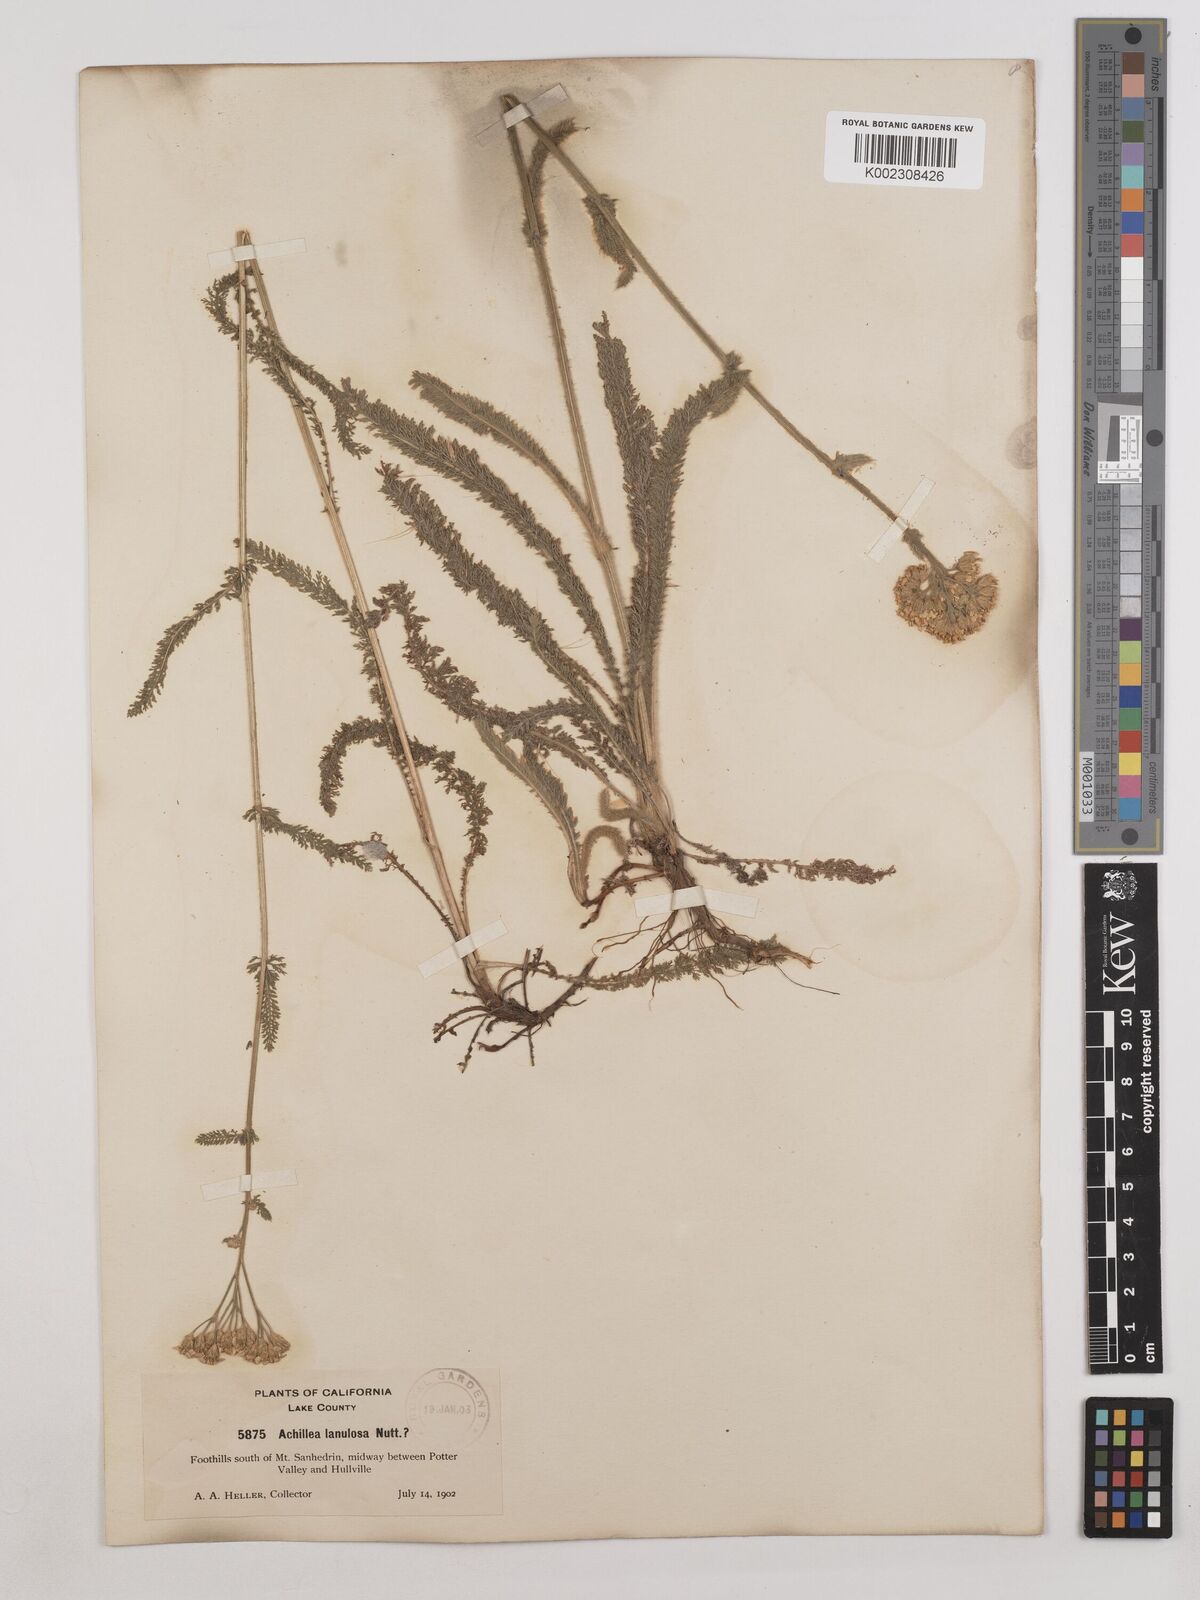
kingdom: Plantae
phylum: Tracheophyta
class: Magnoliopsida
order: Asterales
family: Asteraceae
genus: Achillea
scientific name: Achillea millefolium
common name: Yarrow
